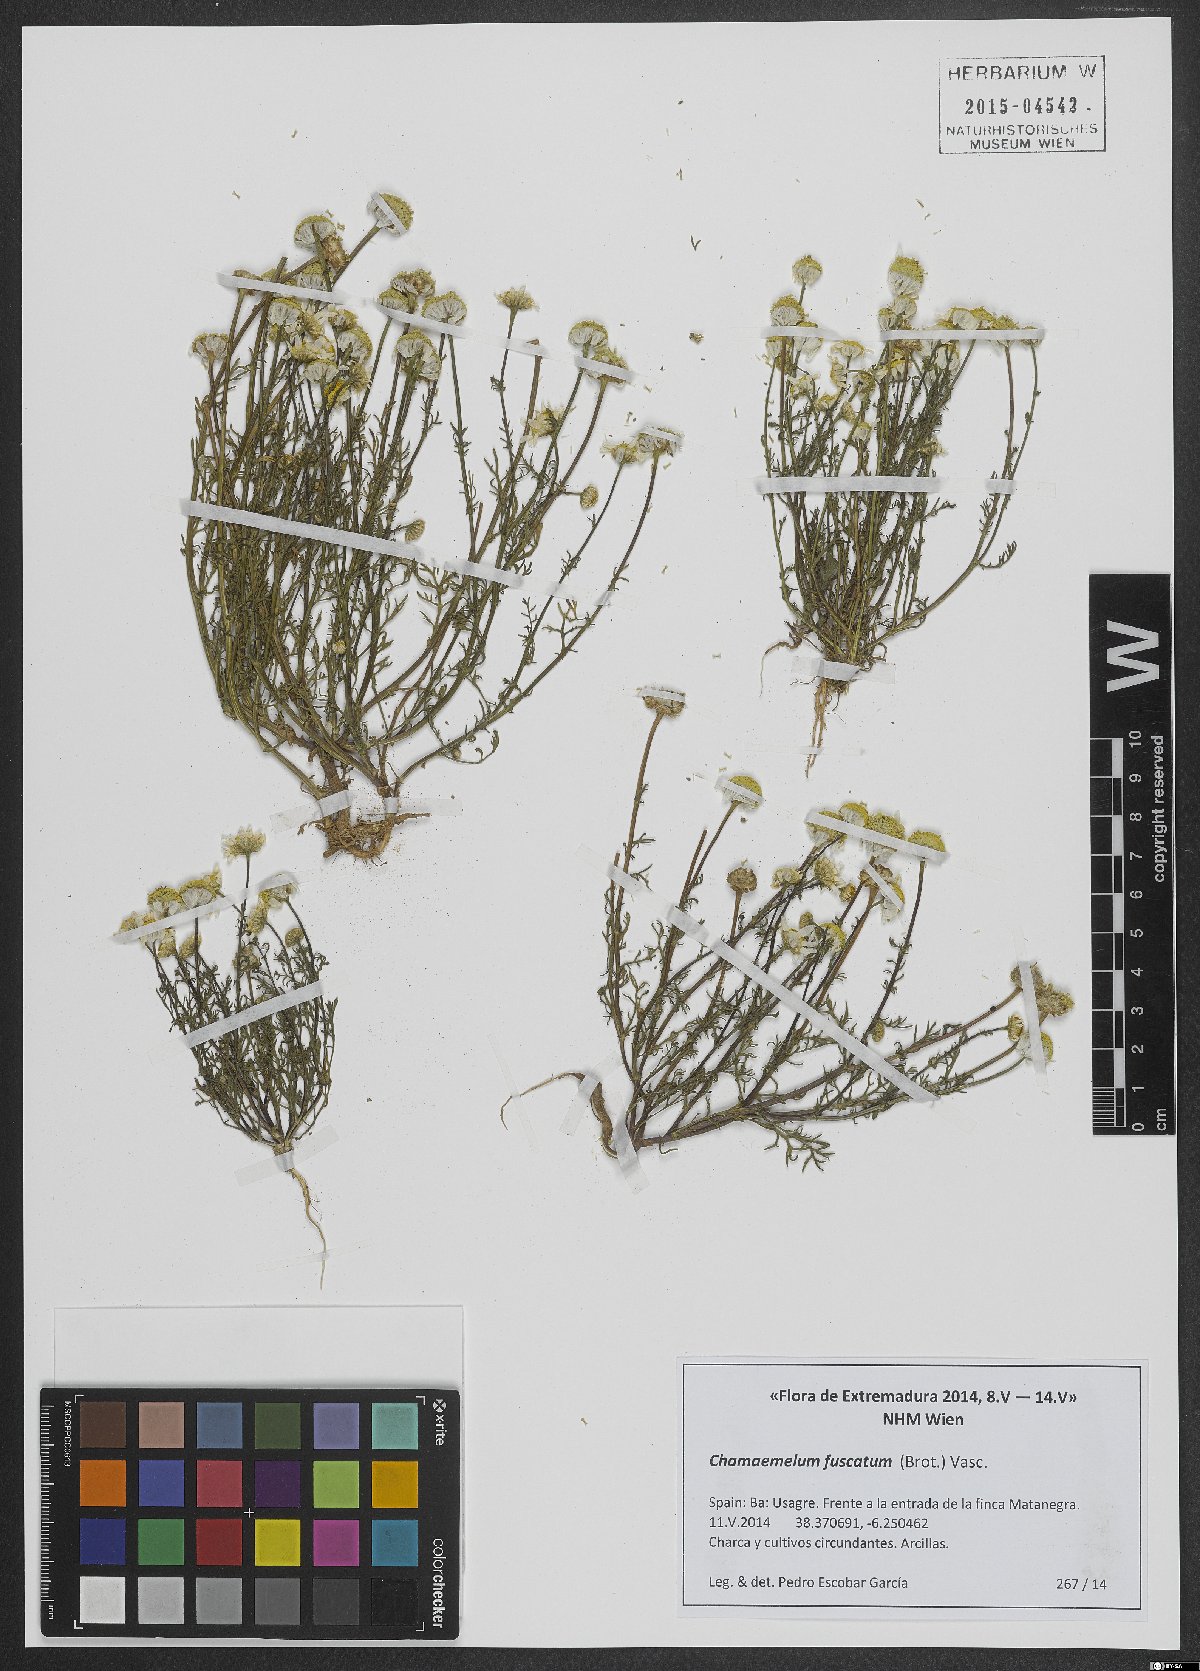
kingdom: Plantae
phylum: Tracheophyta
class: Magnoliopsida
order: Asterales
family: Asteraceae
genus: Chamaemelum
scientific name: Chamaemelum fuscatum
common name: Chamomile
